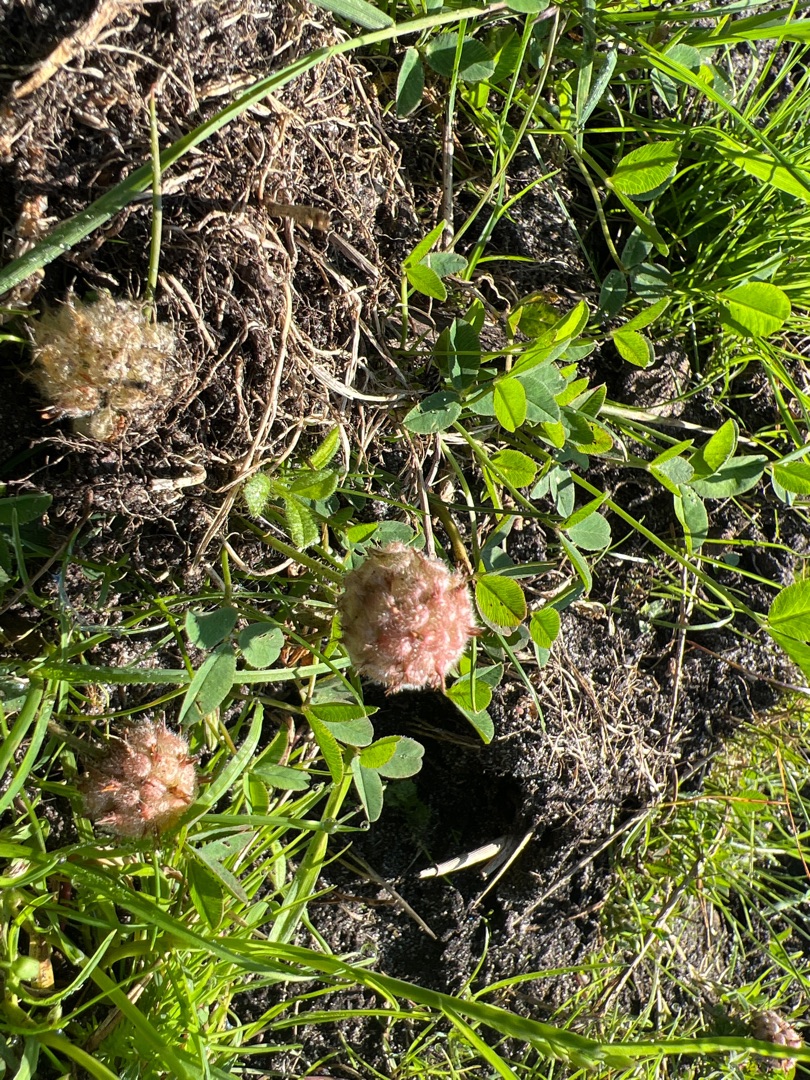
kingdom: Plantae
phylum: Tracheophyta
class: Magnoliopsida
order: Fabales
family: Fabaceae
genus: Trifolium
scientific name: Trifolium fragiferum
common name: Jordbær-kløver
